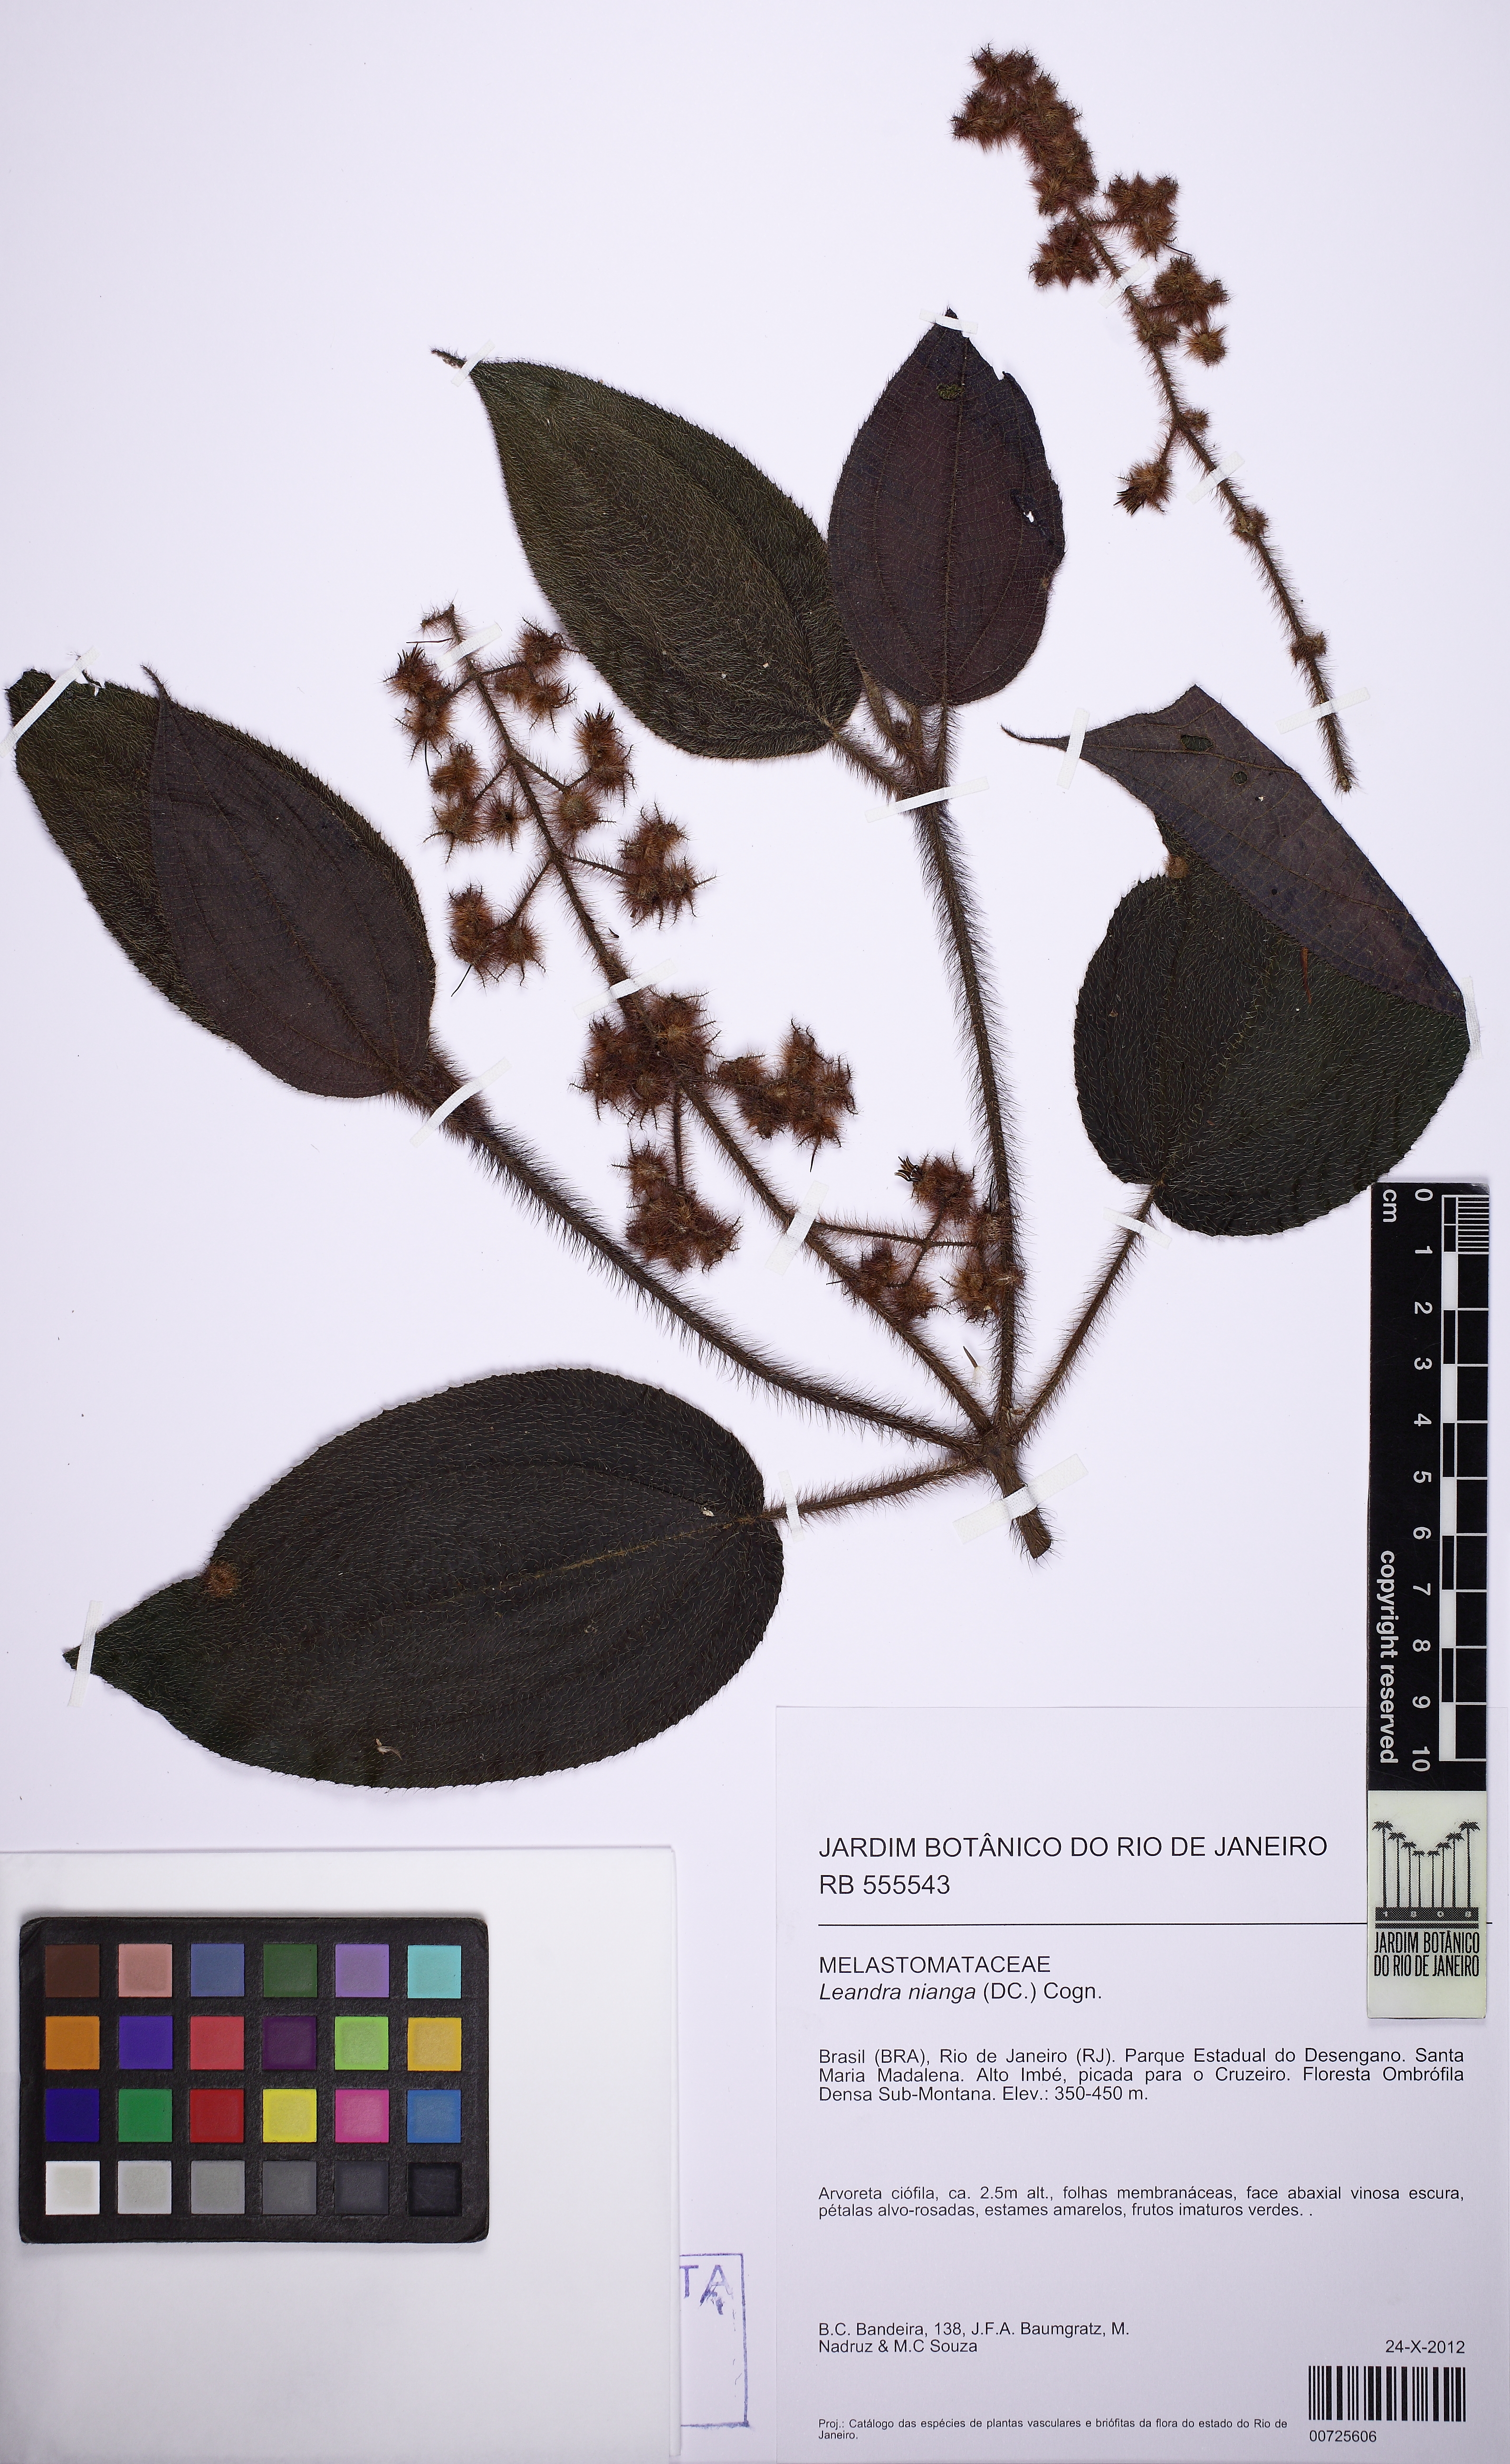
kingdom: Plantae
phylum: Tracheophyta
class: Magnoliopsida
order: Myrtales
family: Melastomataceae
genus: Miconia
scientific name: Miconia nianga
